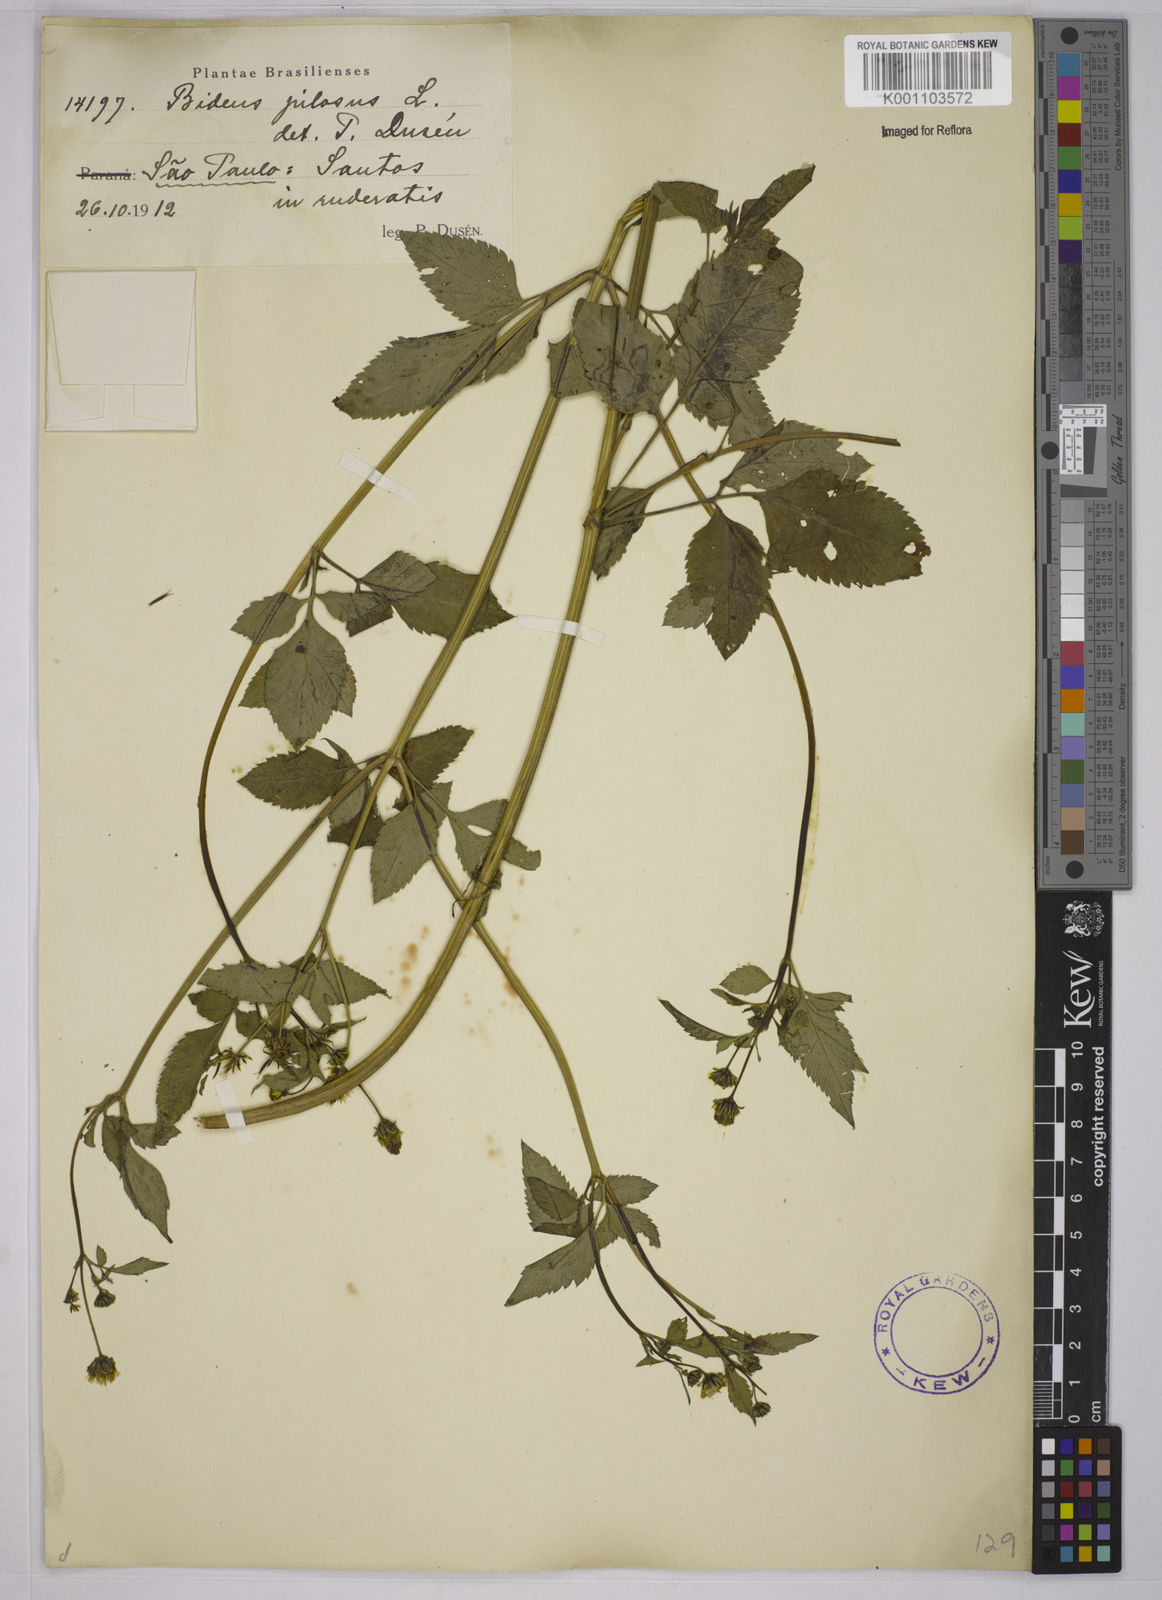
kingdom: Plantae
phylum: Tracheophyta
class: Magnoliopsida
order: Asterales
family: Asteraceae
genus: Bidens
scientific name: Bidens pilosa
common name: Black-jack
